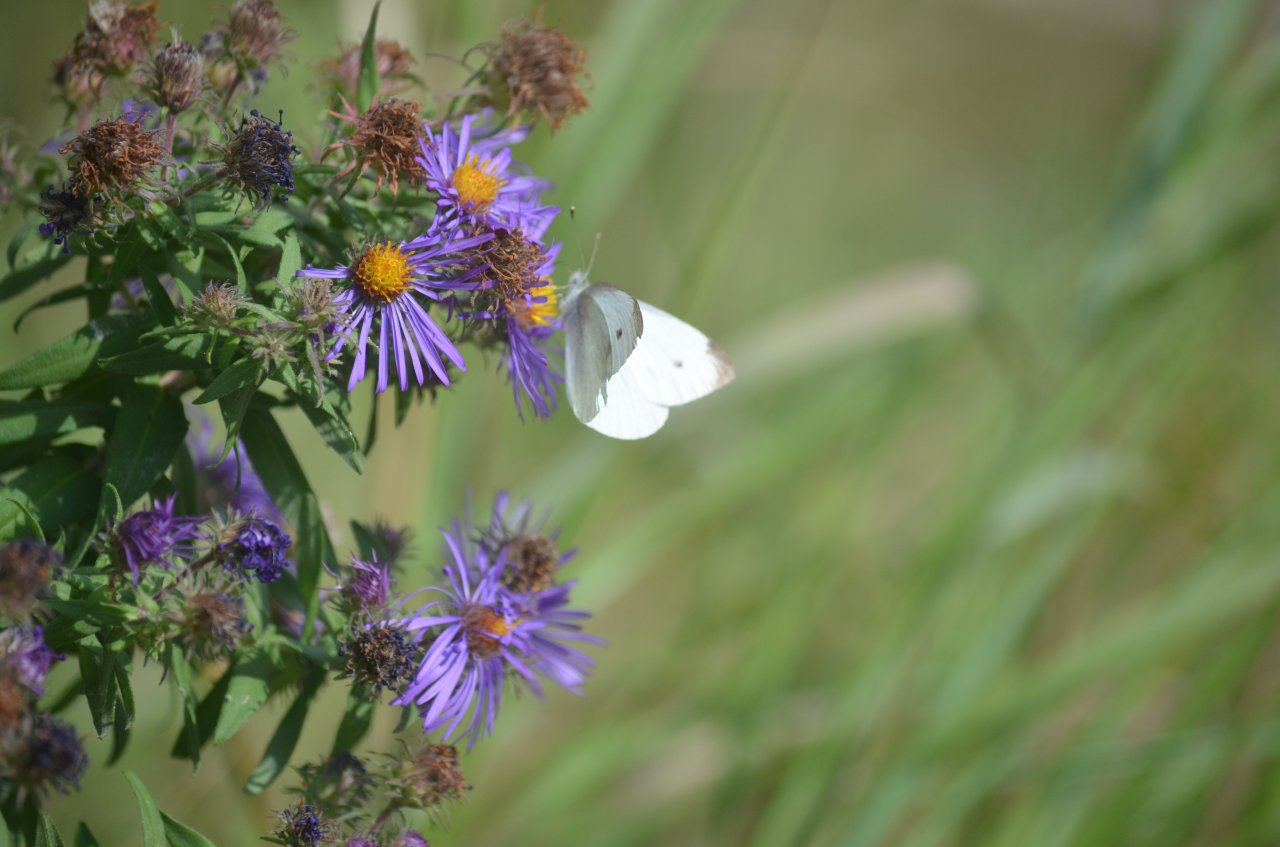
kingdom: Animalia
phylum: Arthropoda
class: Insecta
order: Lepidoptera
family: Pieridae
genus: Pieris
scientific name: Pieris rapae
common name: Cabbage White
